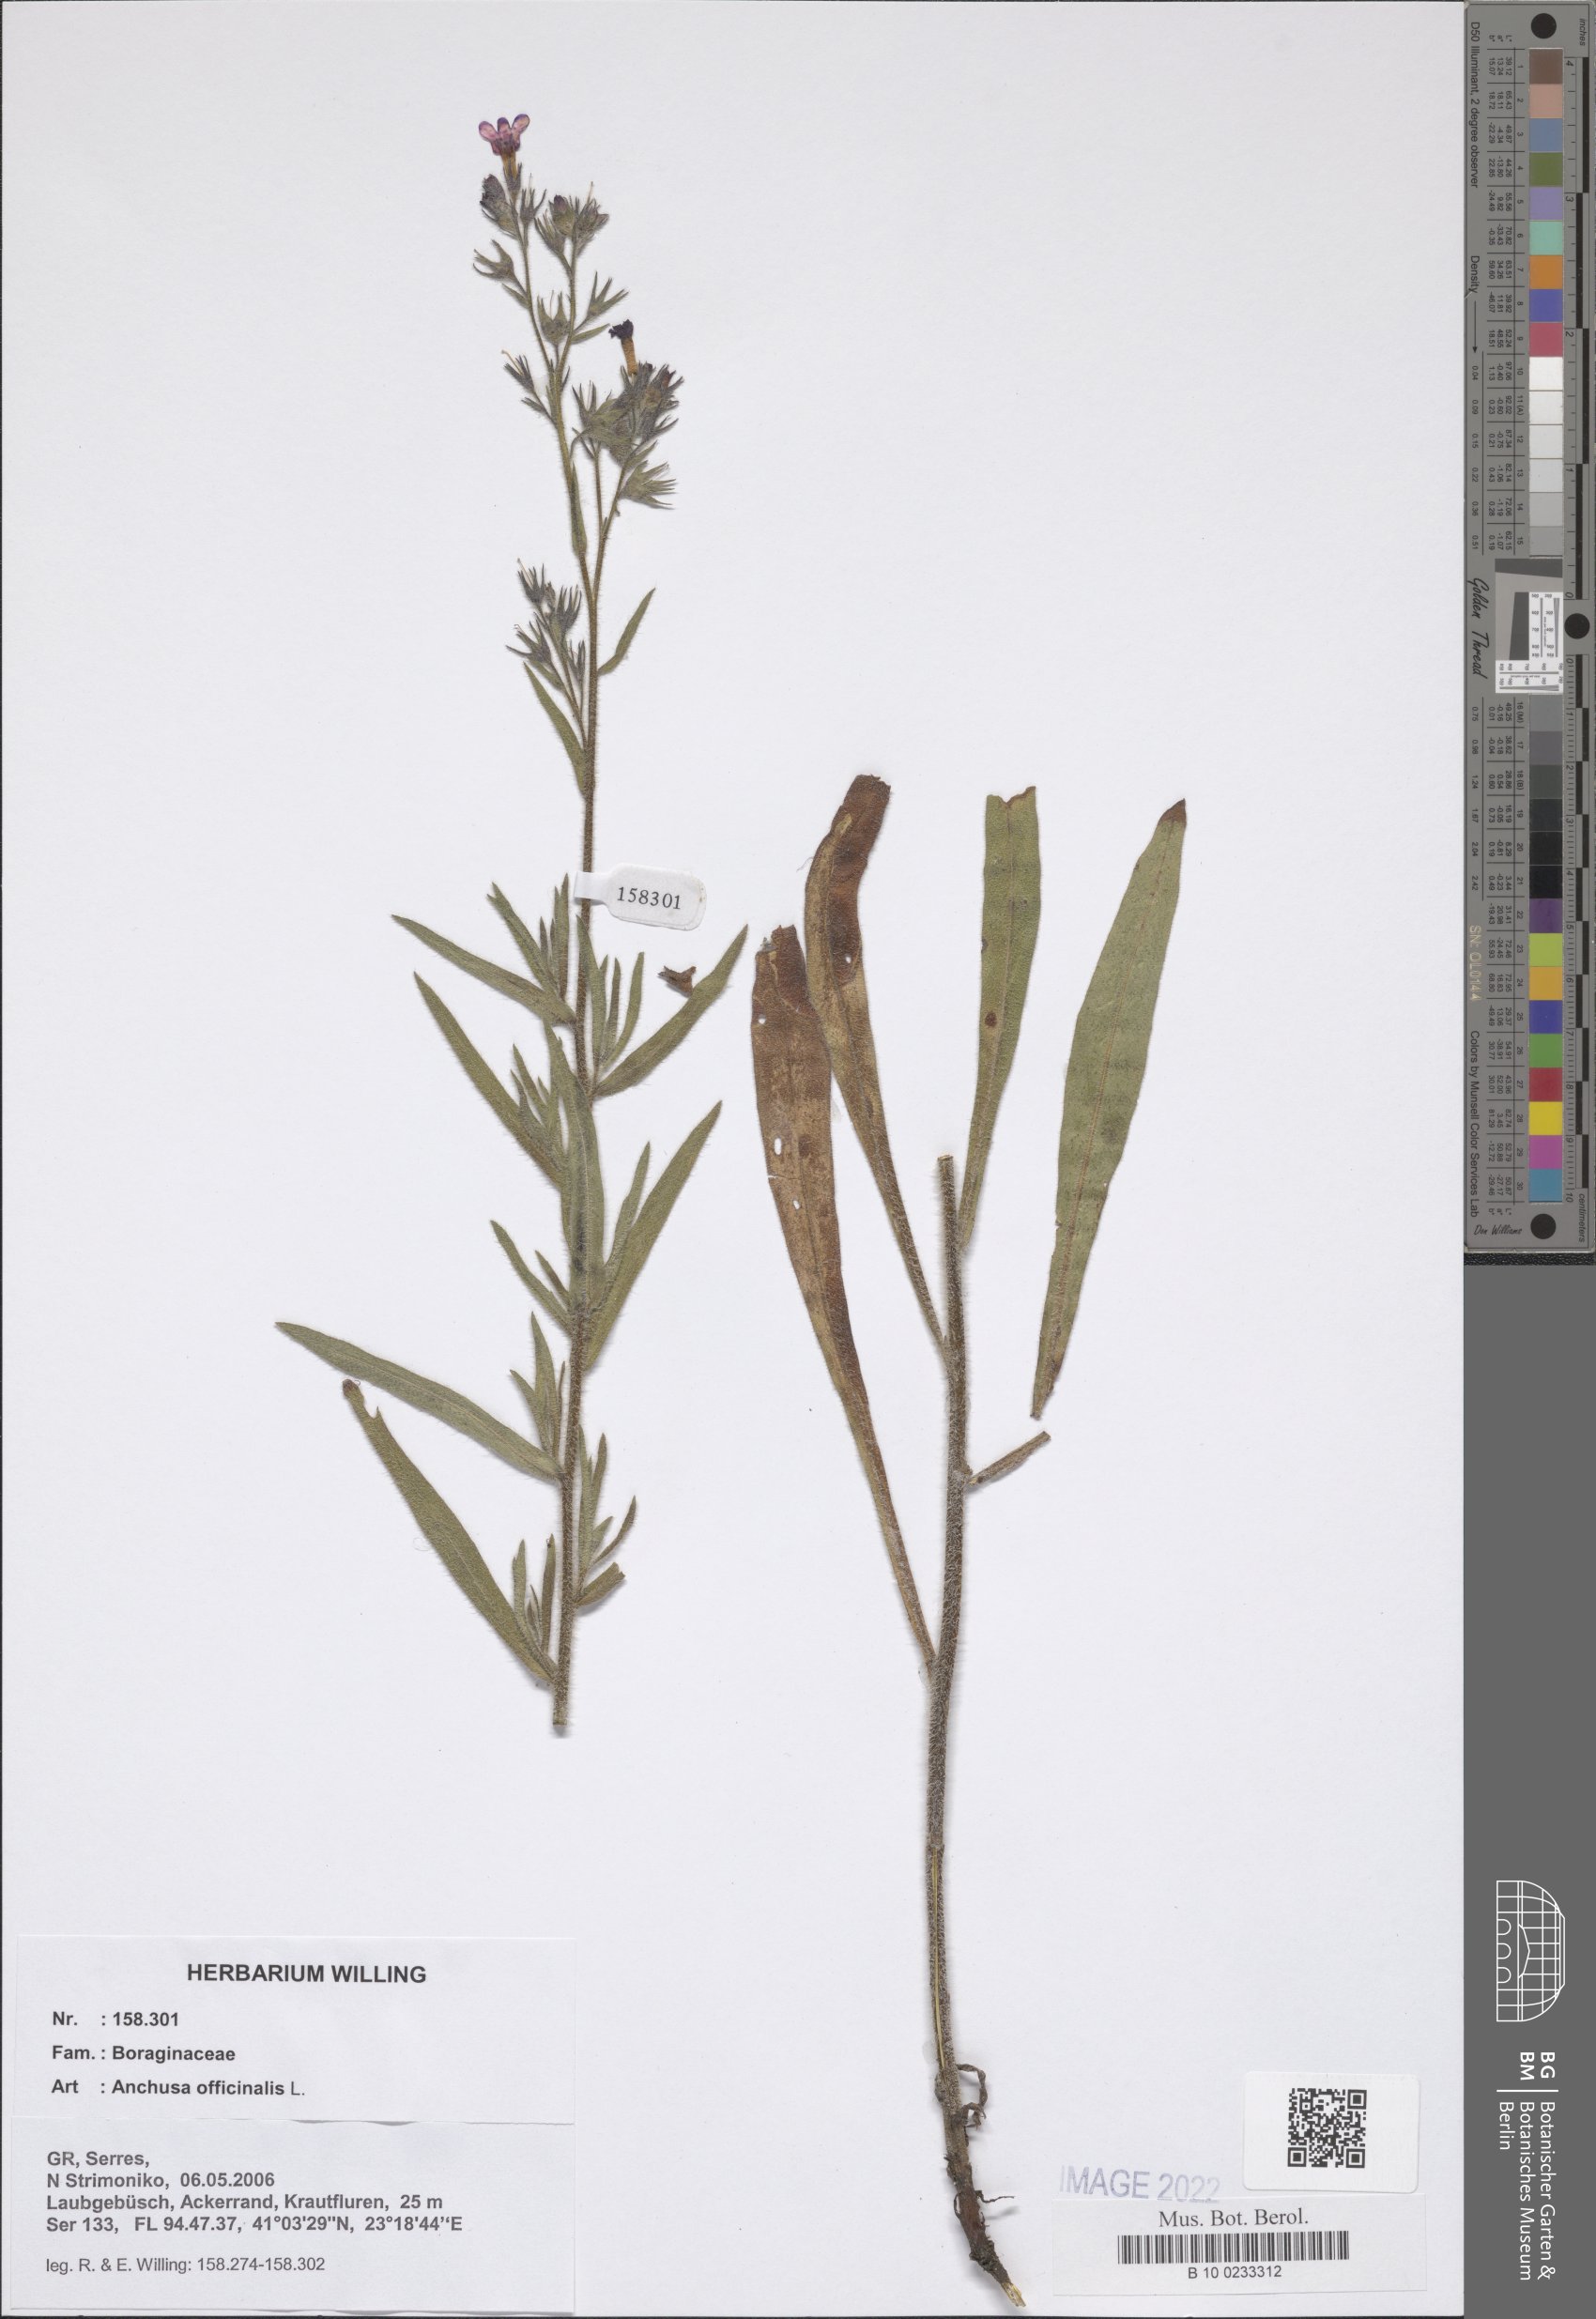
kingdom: Plantae
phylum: Tracheophyta
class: Magnoliopsida
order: Boraginales
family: Boraginaceae
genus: Anchusa
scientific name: Anchusa officinalis
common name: Alkanet
